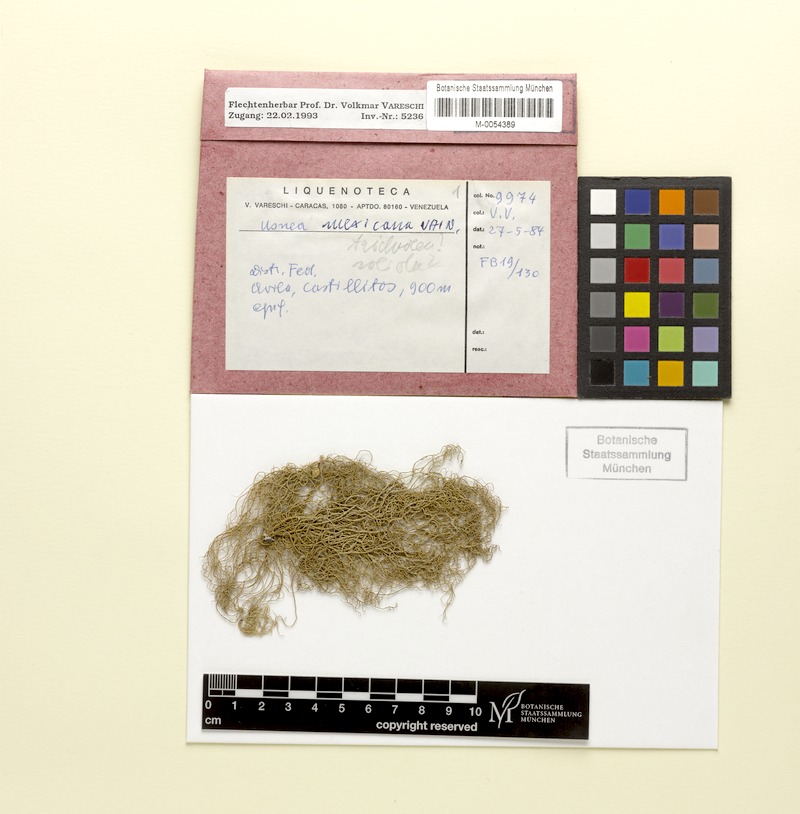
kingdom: Fungi
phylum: Ascomycota
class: Lecanoromycetes
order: Lecanorales
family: Parmeliaceae
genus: Usnea
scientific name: Usnea
